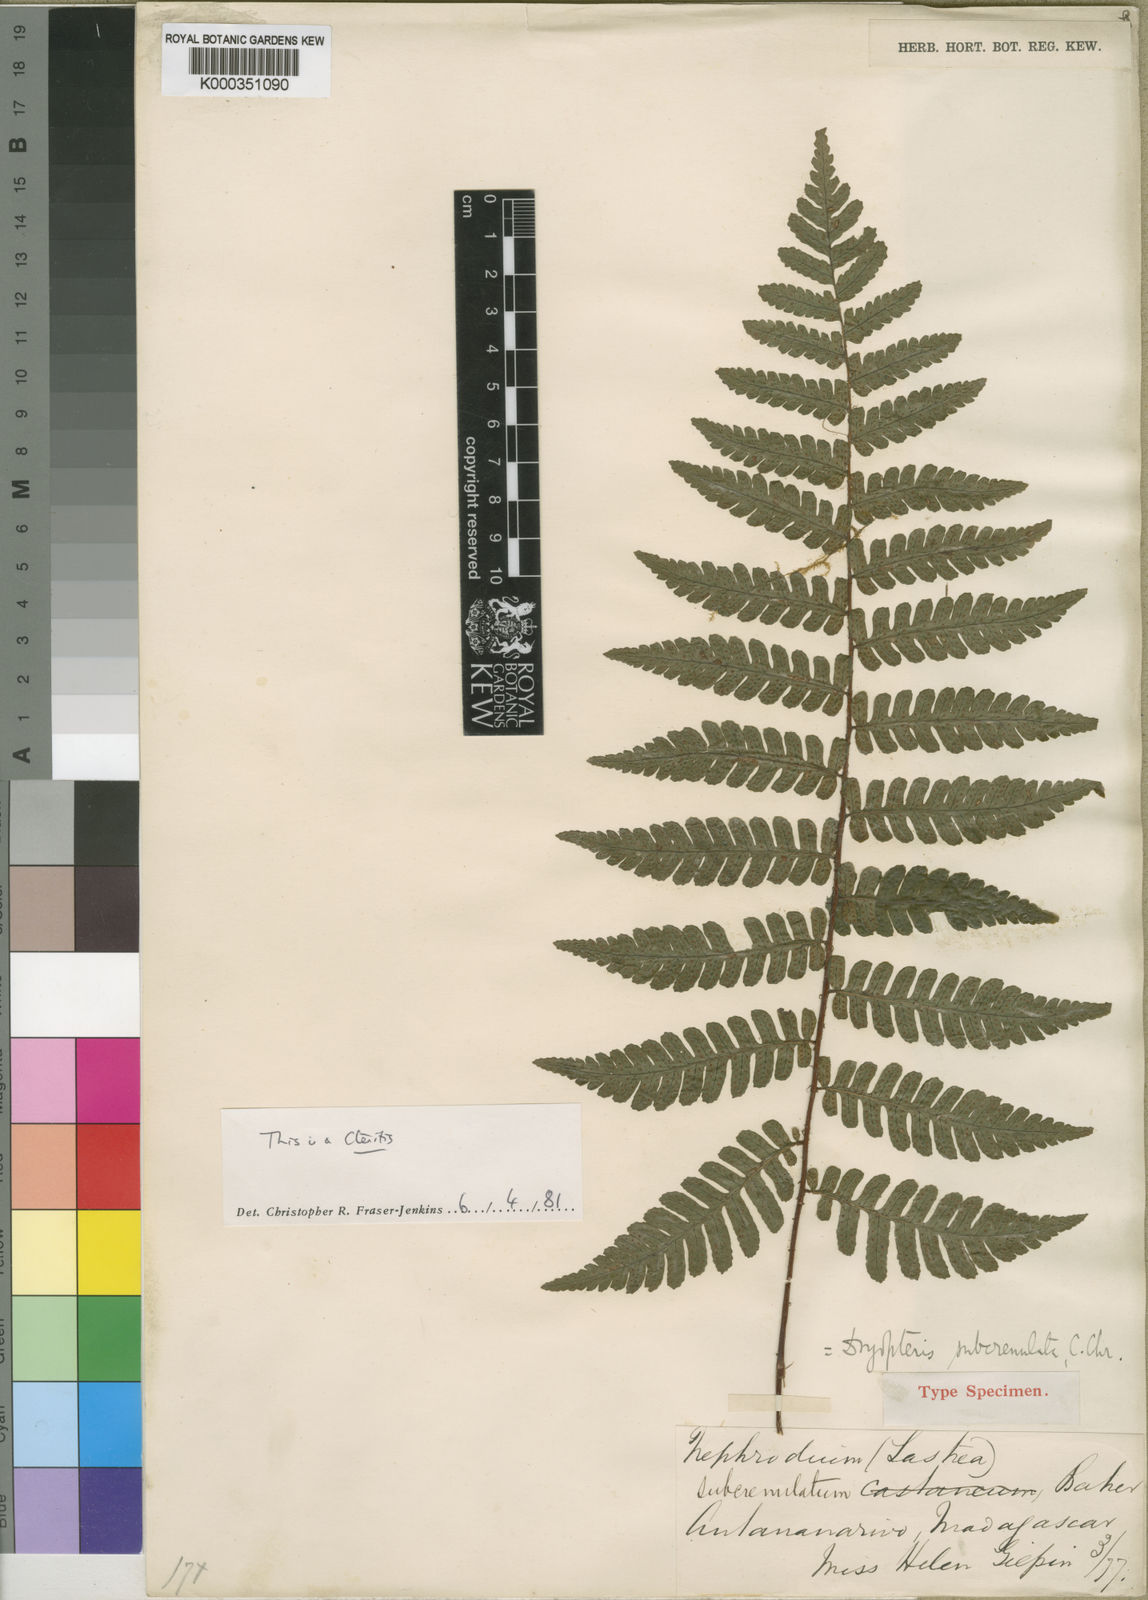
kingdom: Plantae
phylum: Tracheophyta
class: Polypodiopsida
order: Polypodiales
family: Dryopteridaceae
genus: Ctenitis
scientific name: Ctenitis subcrenulata
